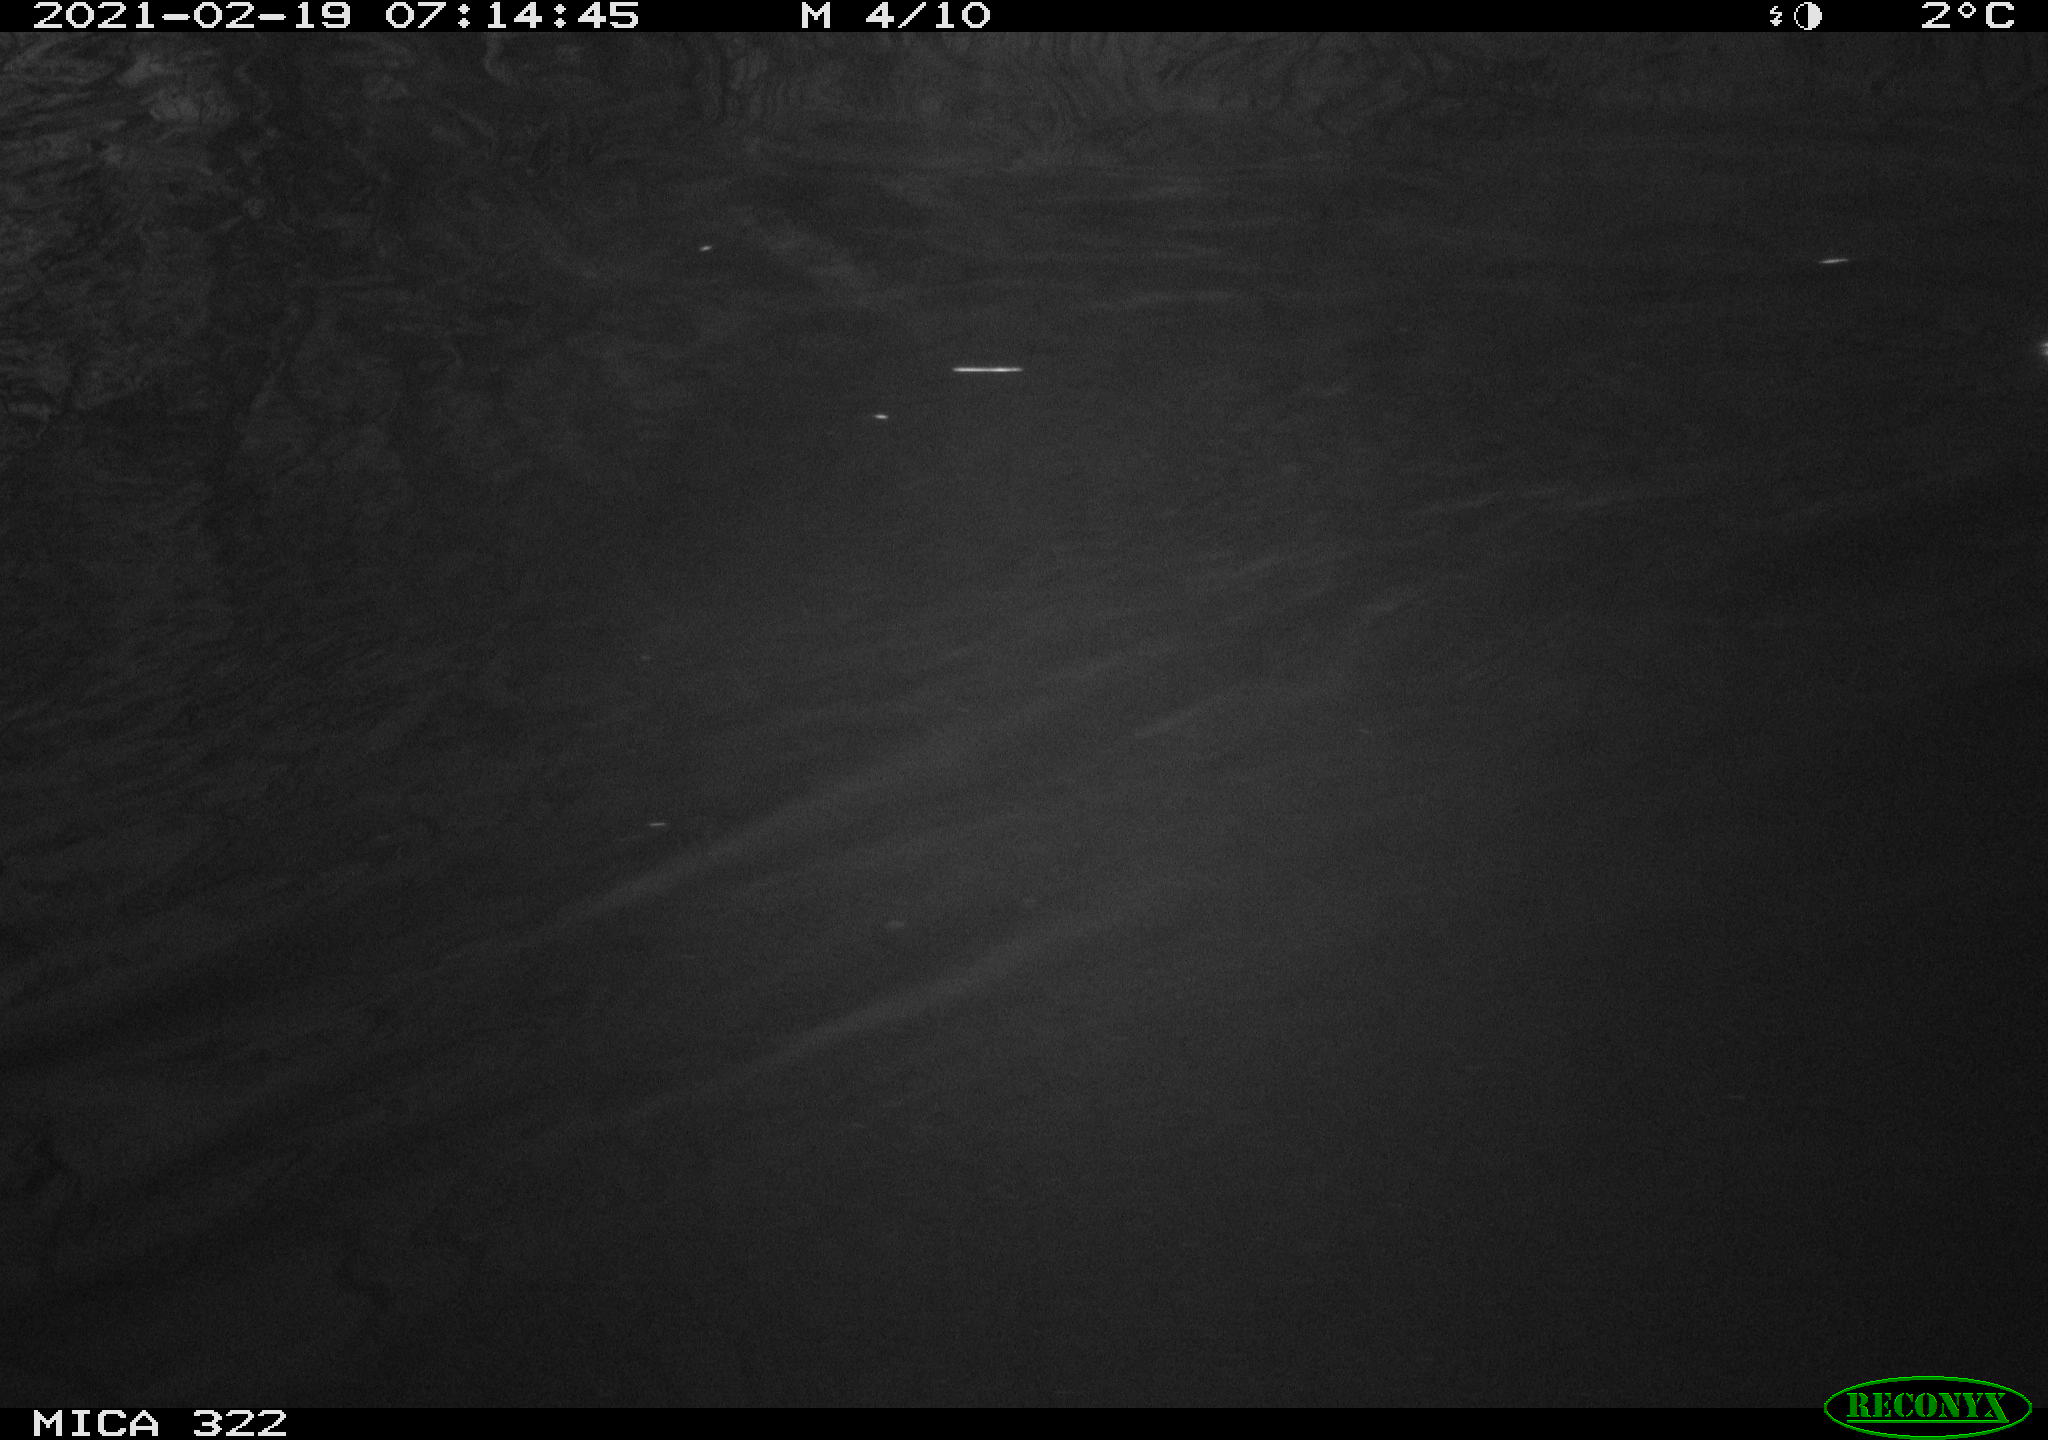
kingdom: Animalia
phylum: Chordata
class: Aves
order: Anseriformes
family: Anatidae
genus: Anas
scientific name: Anas platyrhynchos
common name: Mallard
